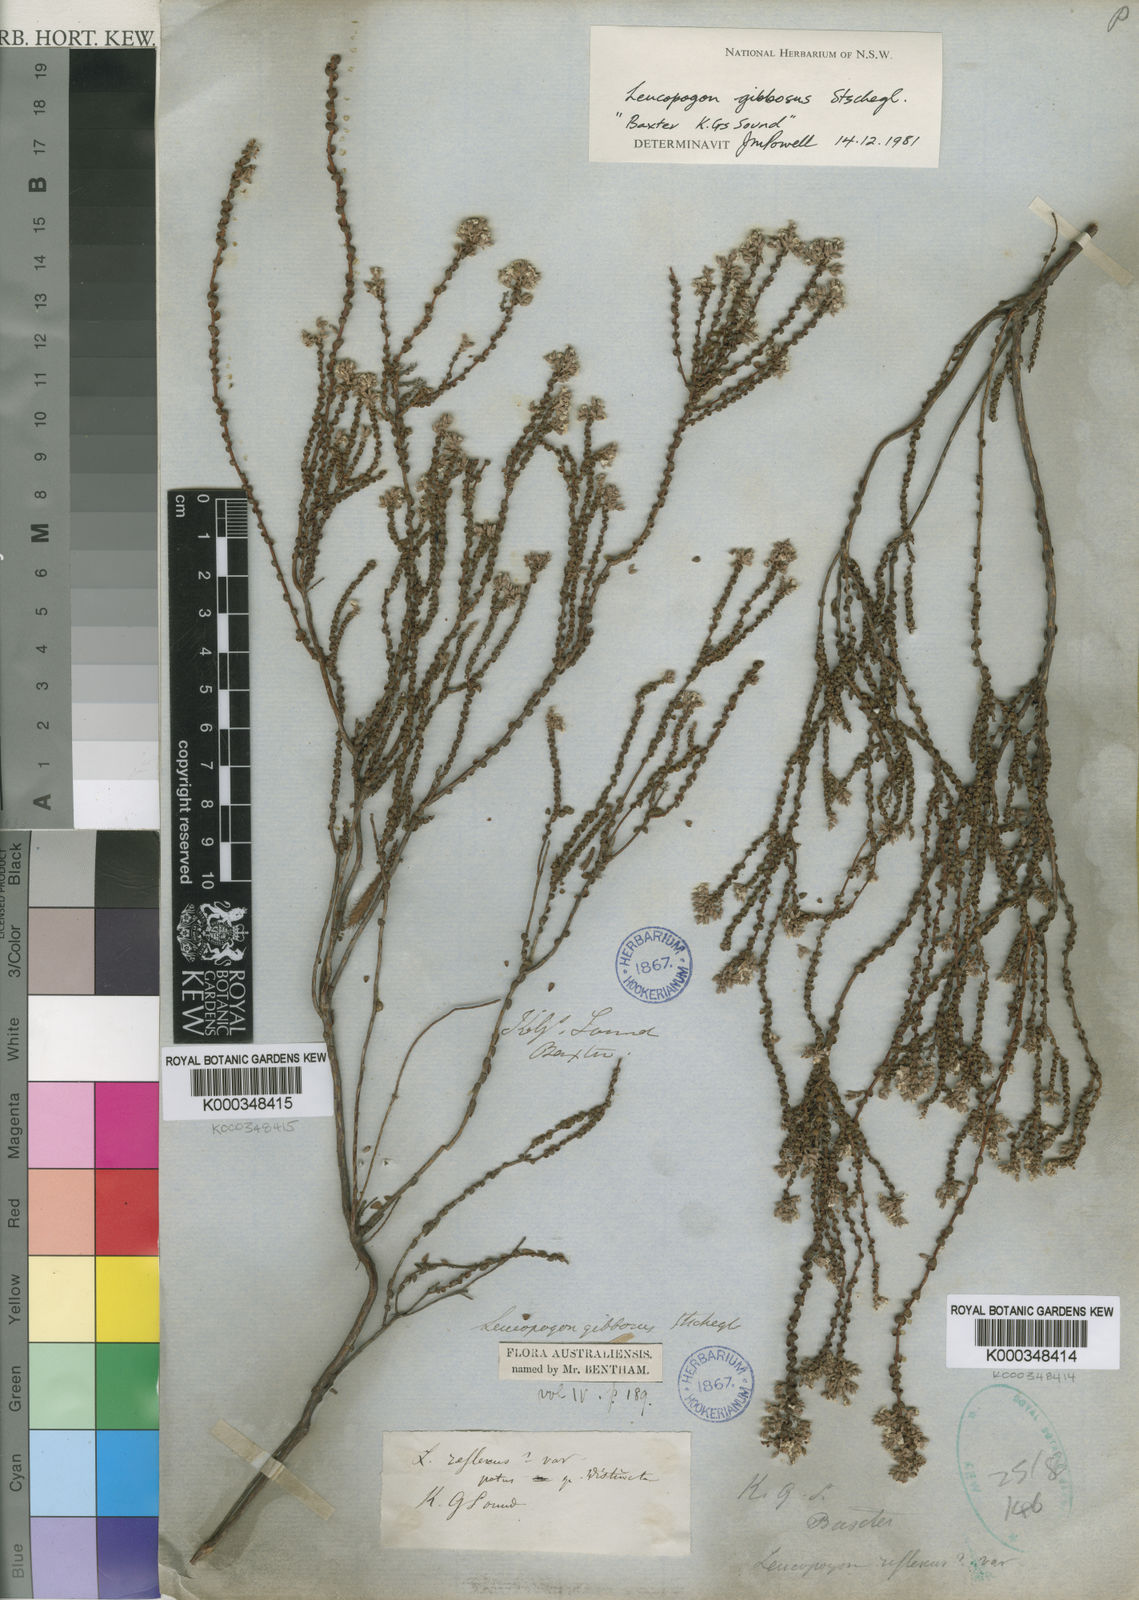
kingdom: Plantae
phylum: Tracheophyta
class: Magnoliopsida
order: Ericales
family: Ericaceae
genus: Leucopogon
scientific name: Leucopogon gibbosus
